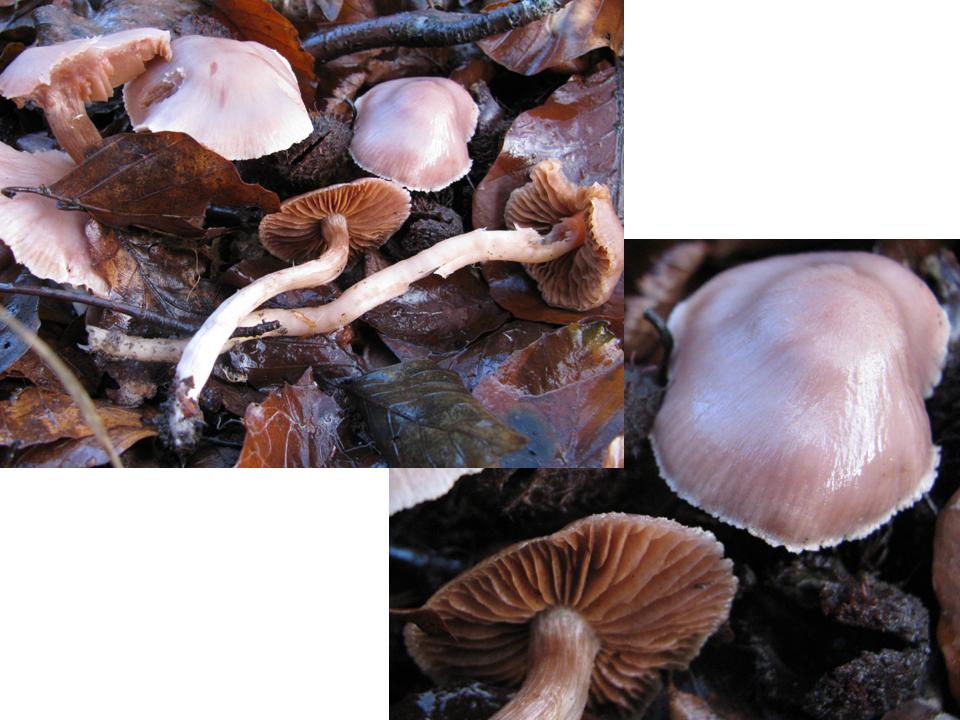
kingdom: Fungi
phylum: Basidiomycota
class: Agaricomycetes
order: Agaricales
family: Cortinariaceae
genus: Cortinarius
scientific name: Cortinarius triangulus
